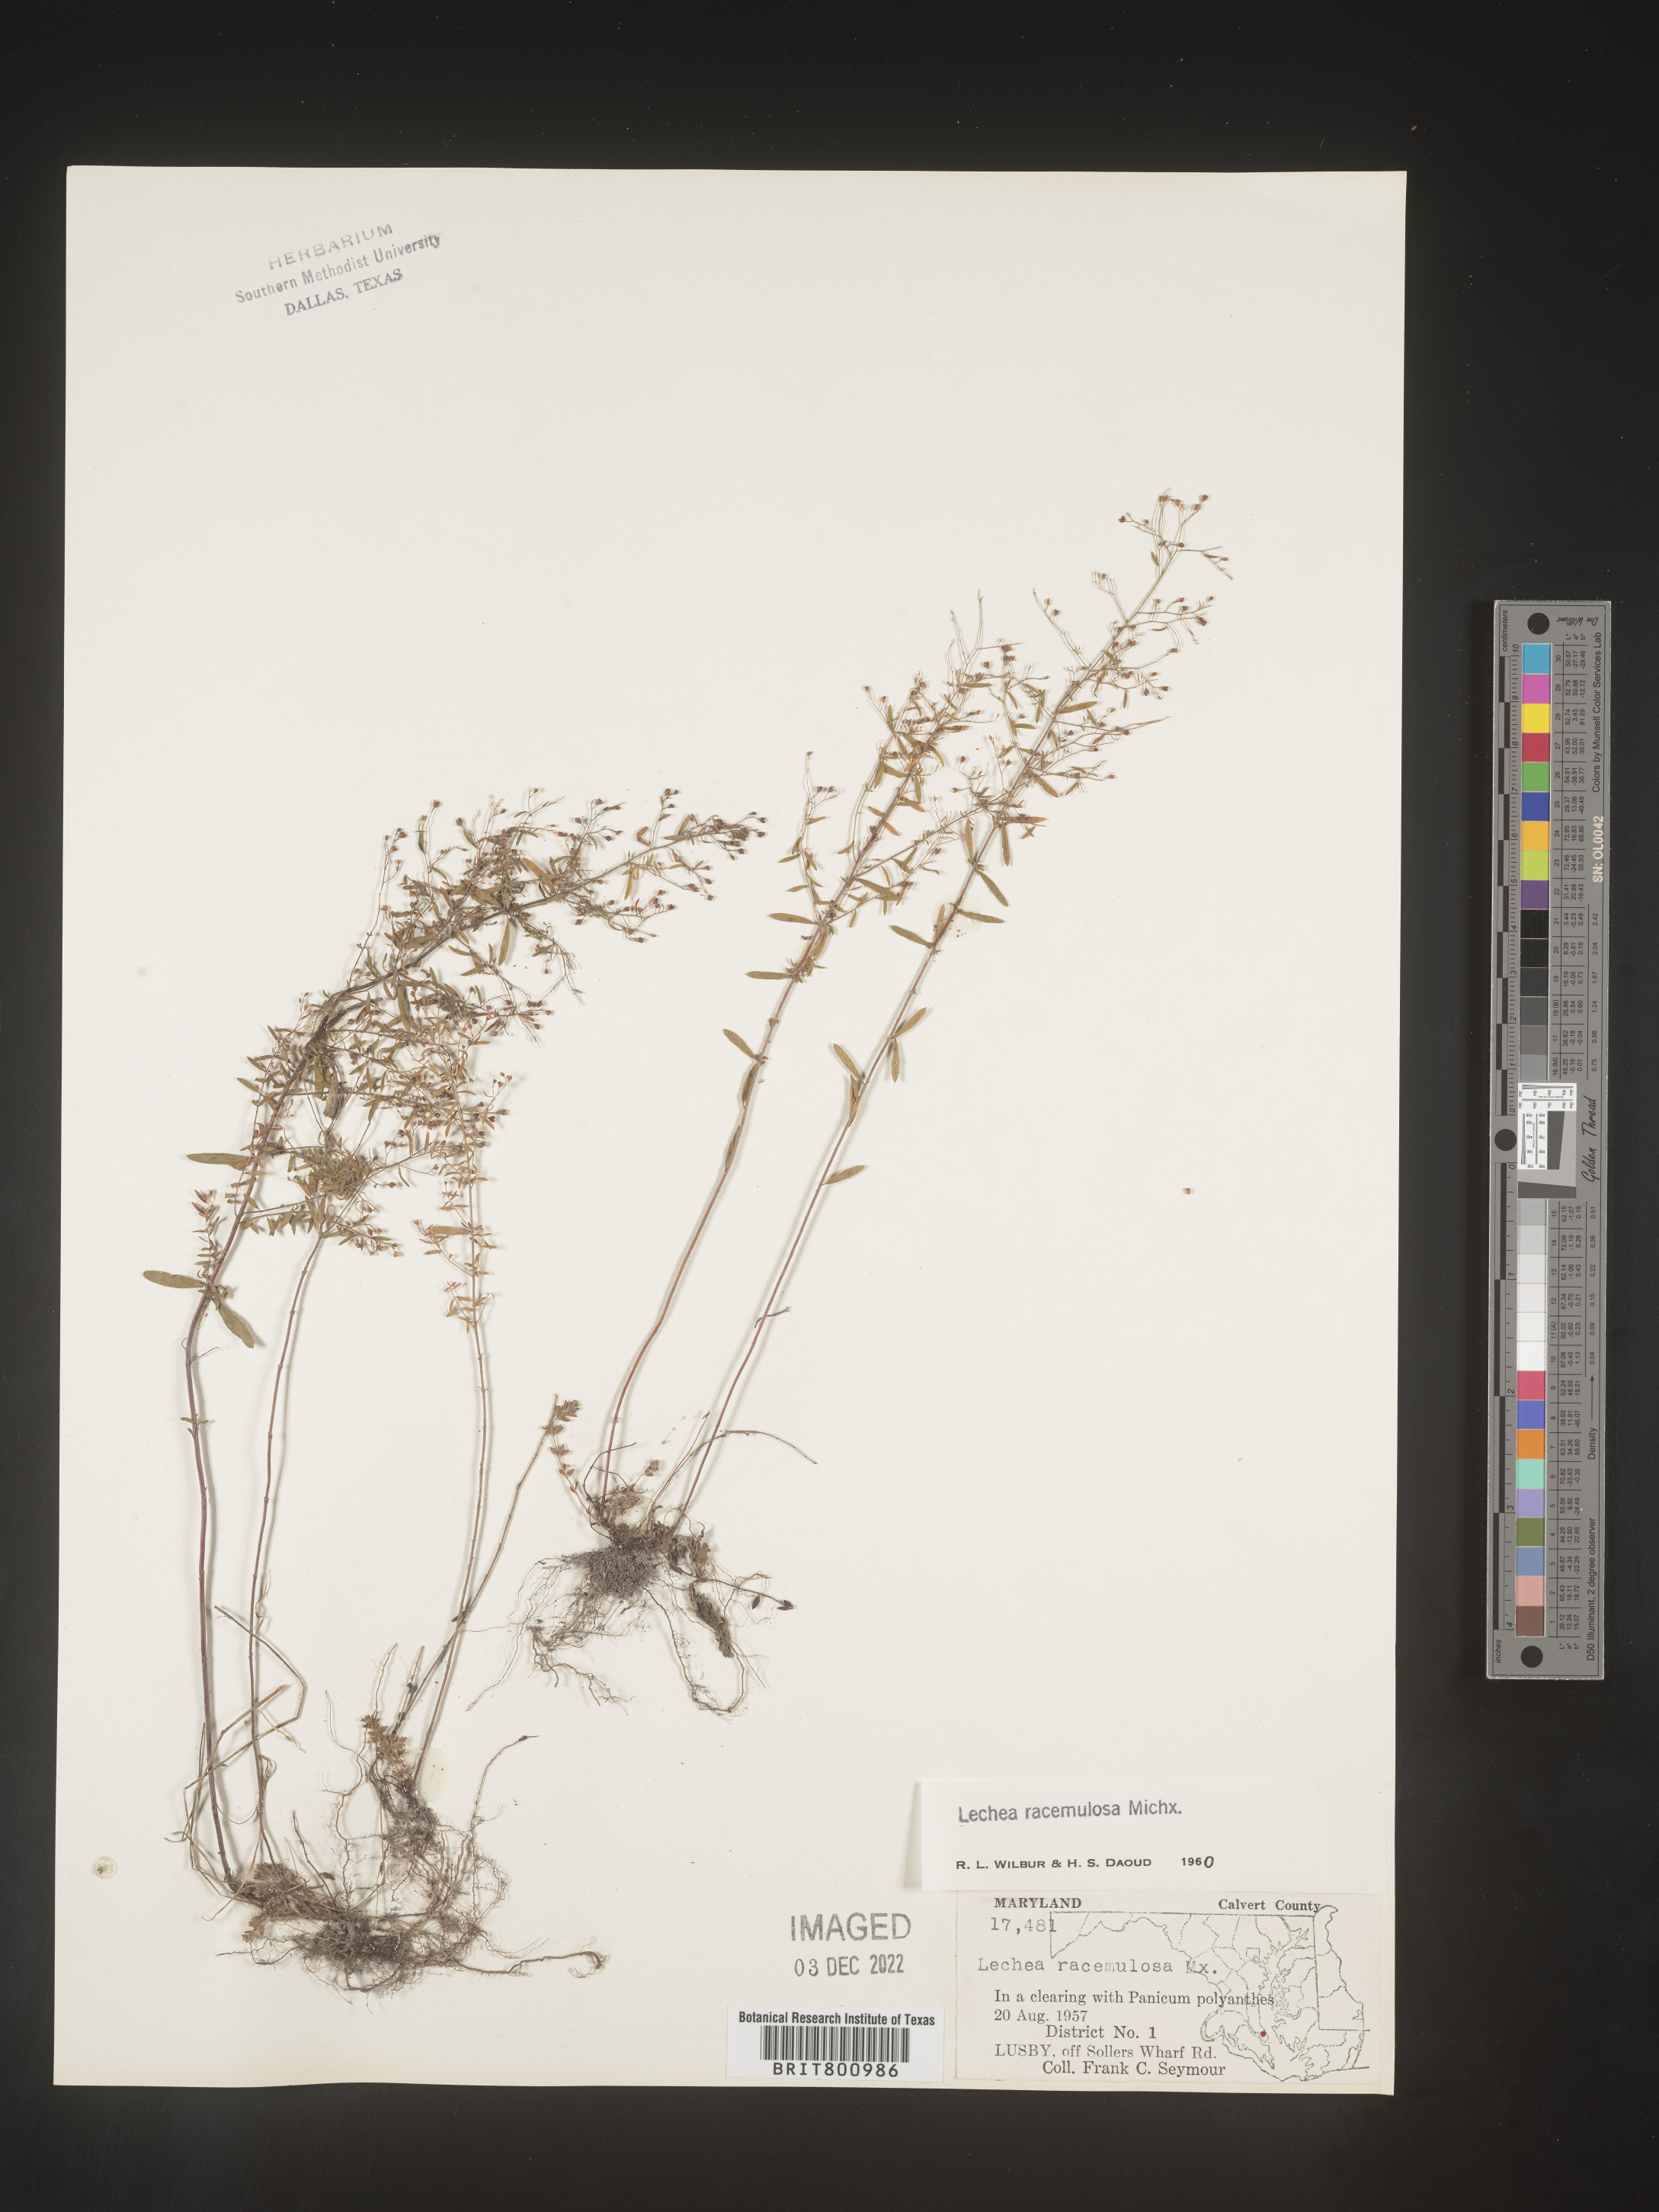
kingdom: Plantae
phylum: Tracheophyta
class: Magnoliopsida
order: Malvales
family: Cistaceae
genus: Lechea
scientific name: Lechea racemulosa
